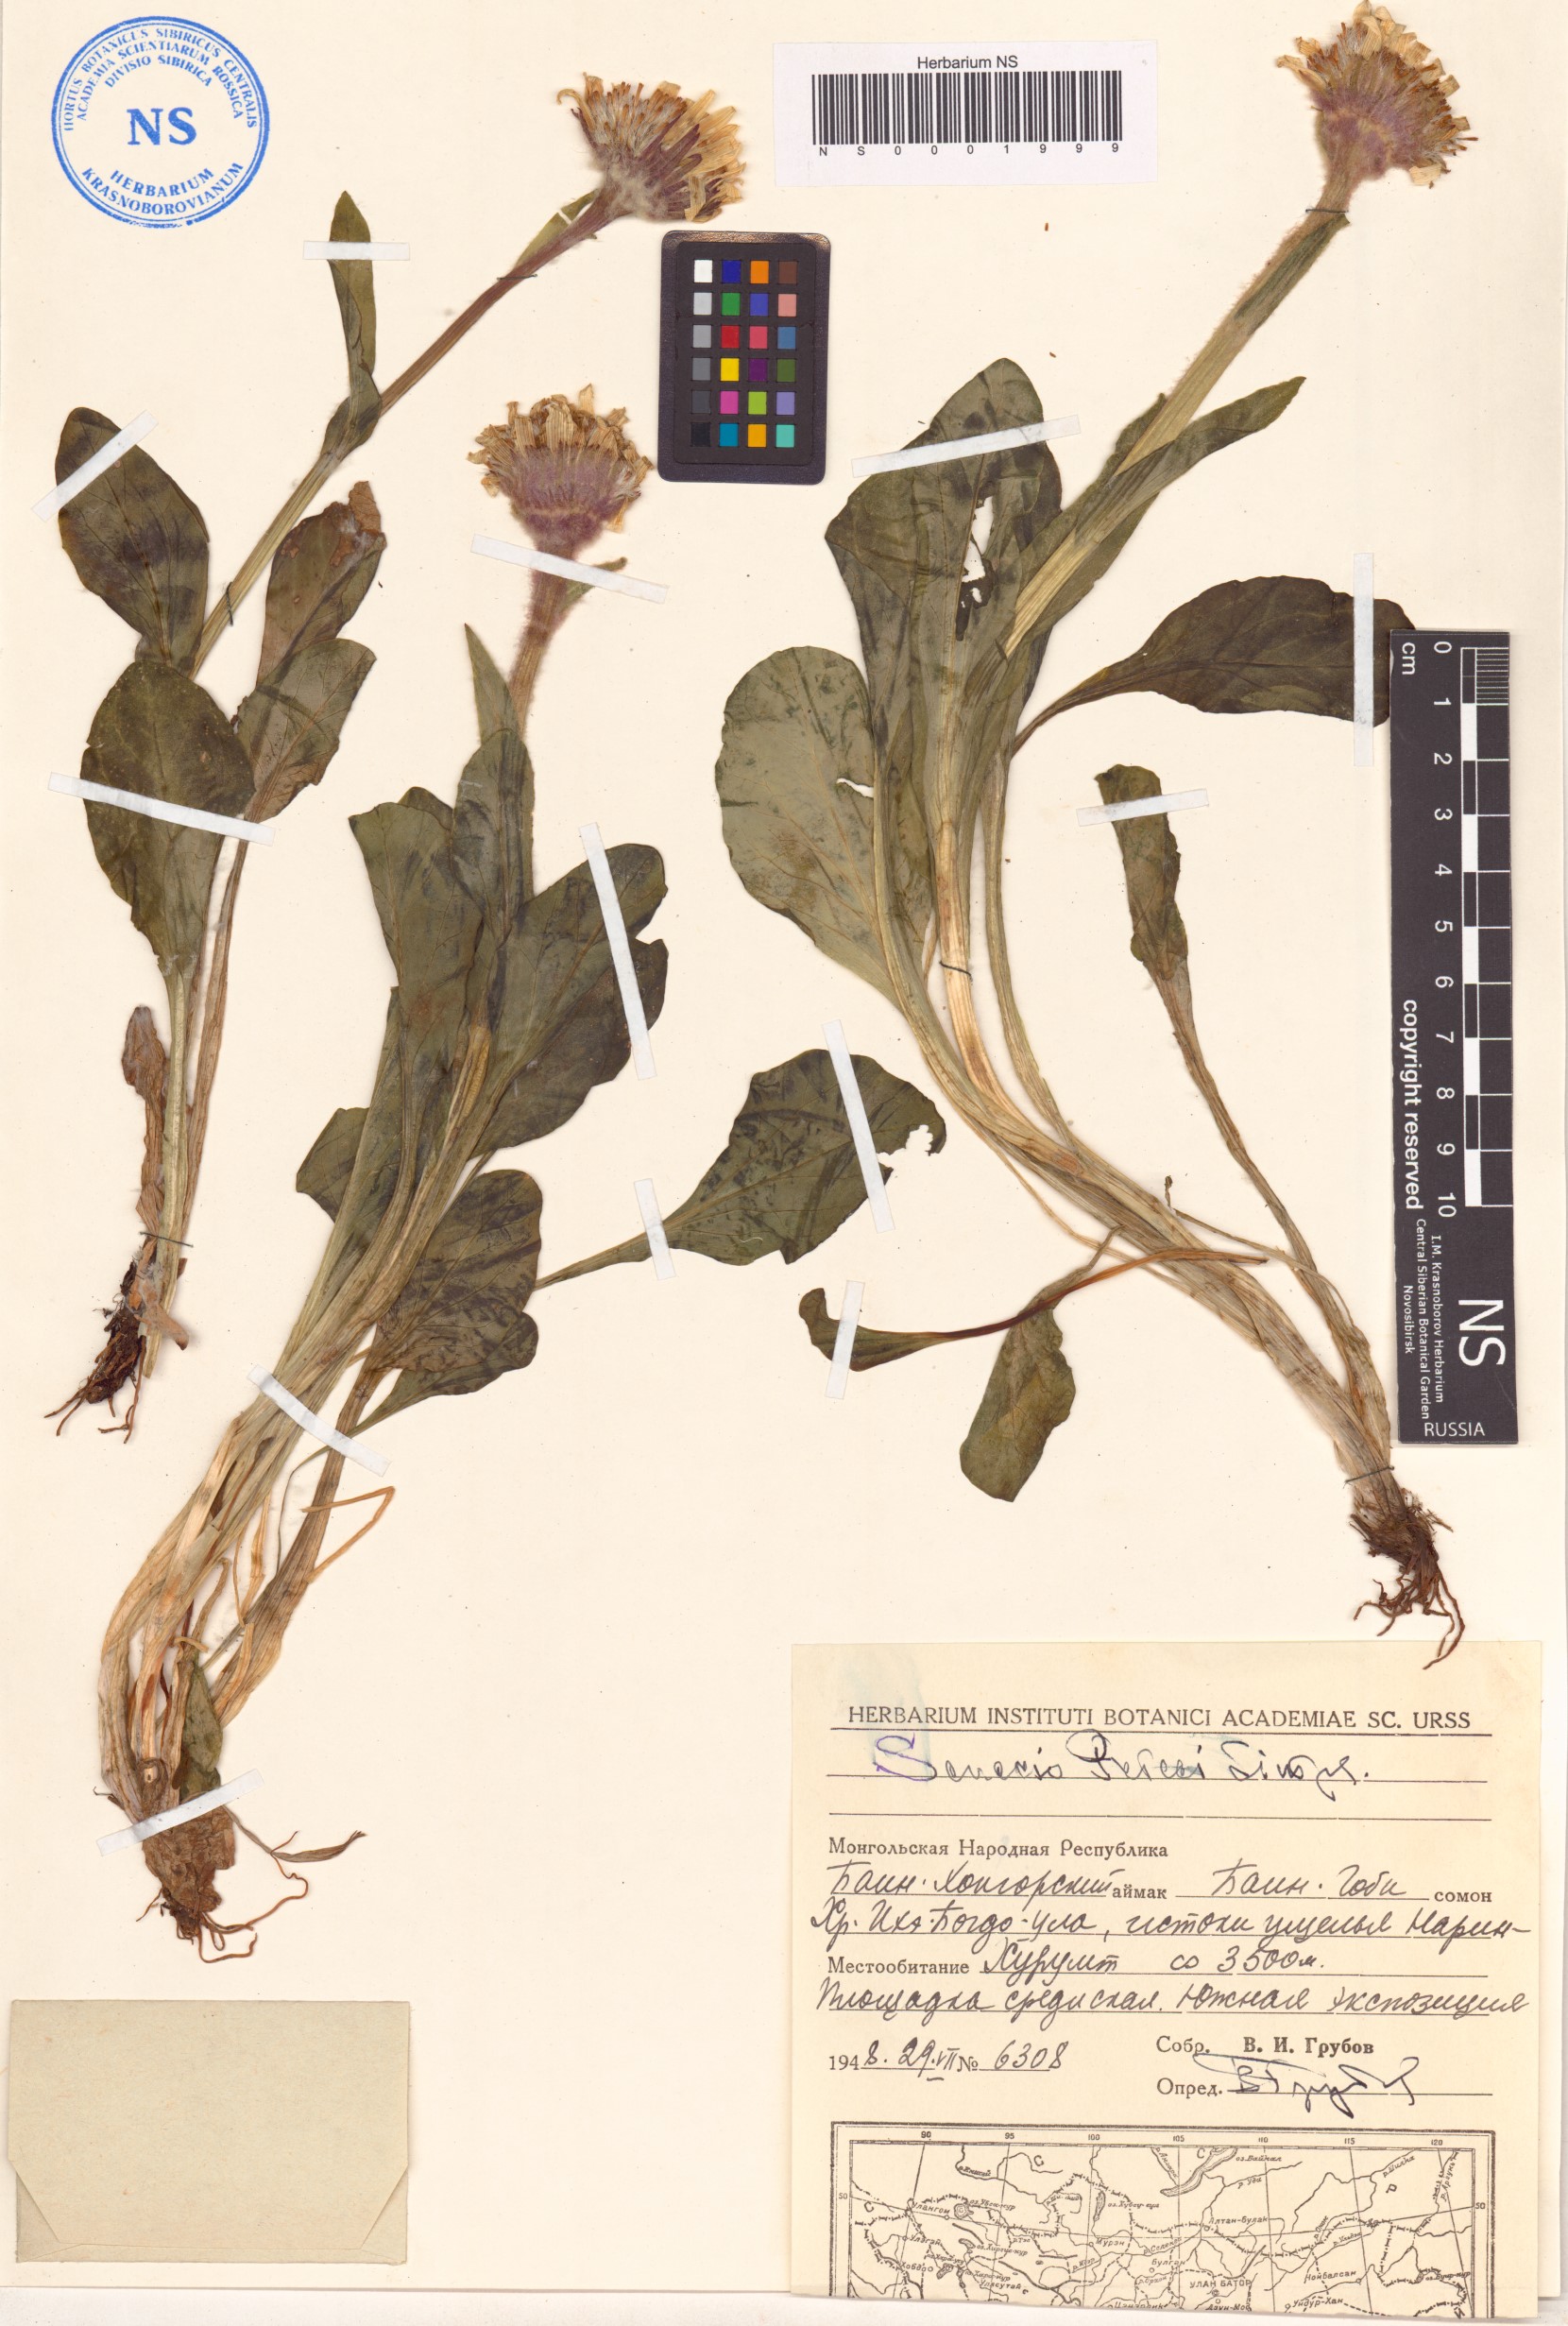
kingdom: Plantae
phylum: Tracheophyta
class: Magnoliopsida
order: Asterales
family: Asteraceae
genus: Tephroseris
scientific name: Tephroseris pricei
